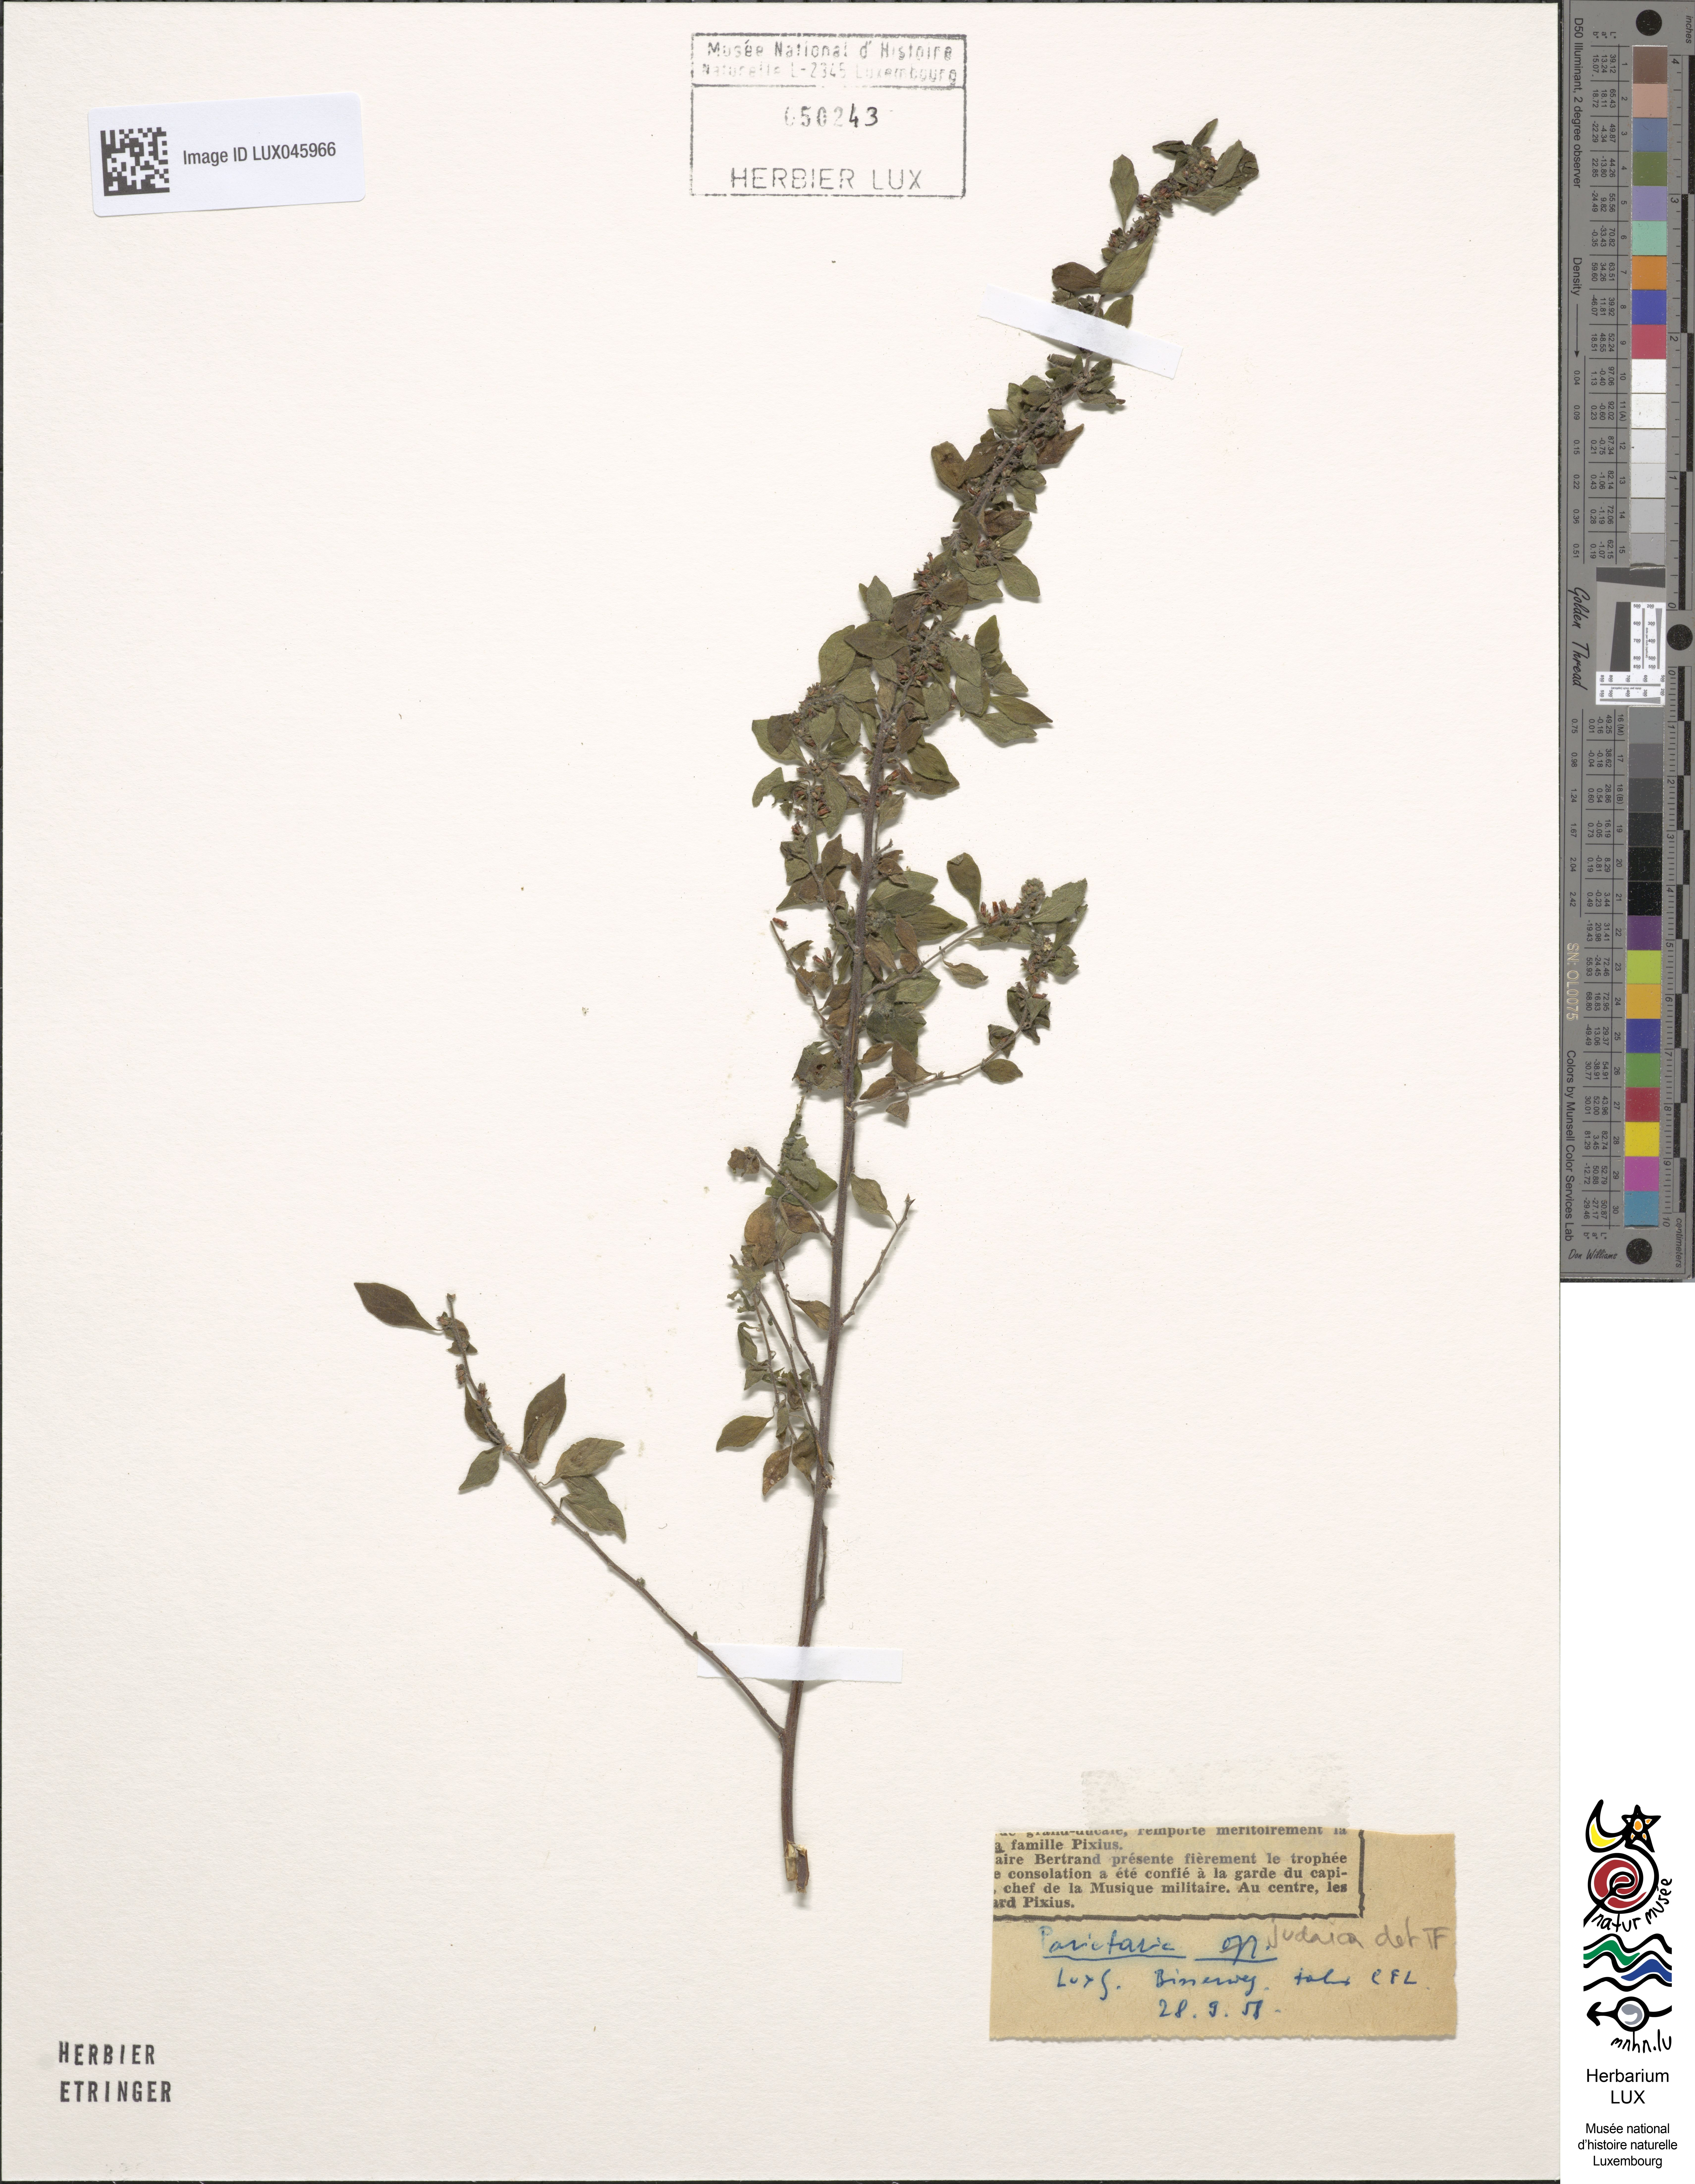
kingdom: Plantae
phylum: Tracheophyta
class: Magnoliopsida
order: Rosales
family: Urticaceae
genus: Parietaria
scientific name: Parietaria judaica
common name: Pellitory-of-the-wall
